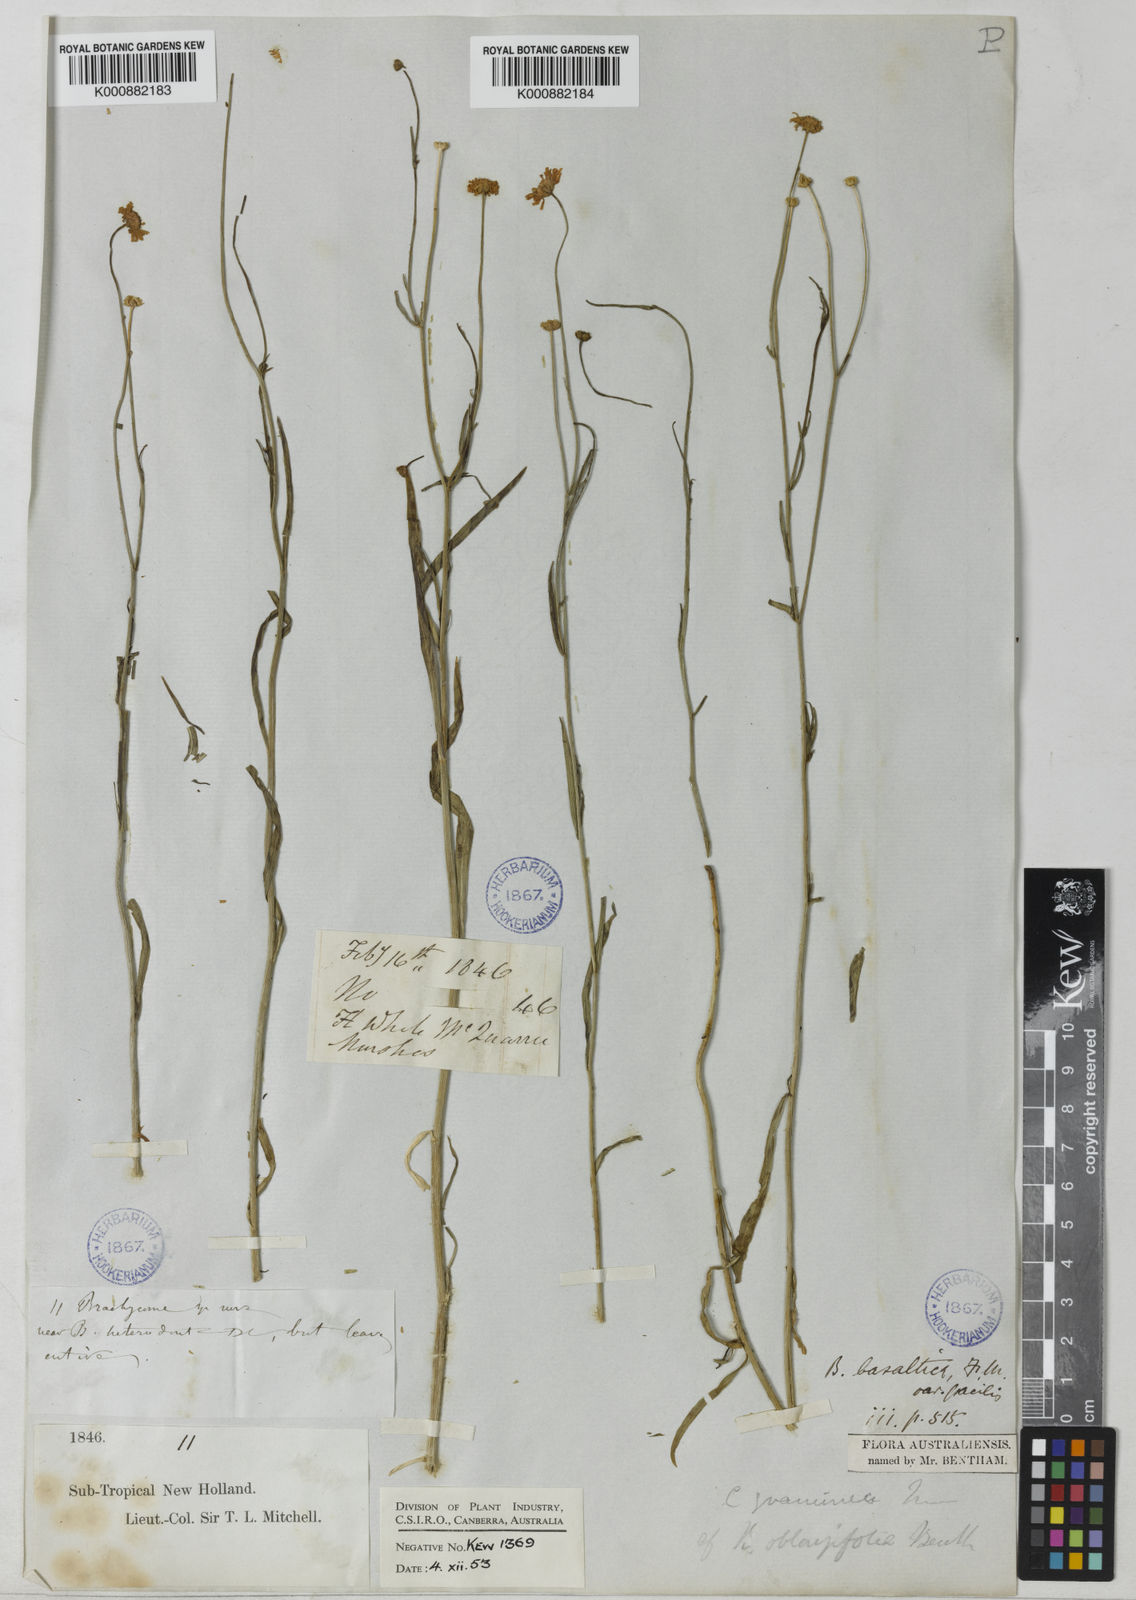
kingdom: Plantae
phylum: Tracheophyta
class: Magnoliopsida
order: Asterales
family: Asteraceae
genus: Brachyscome
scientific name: Brachyscome basaltica
